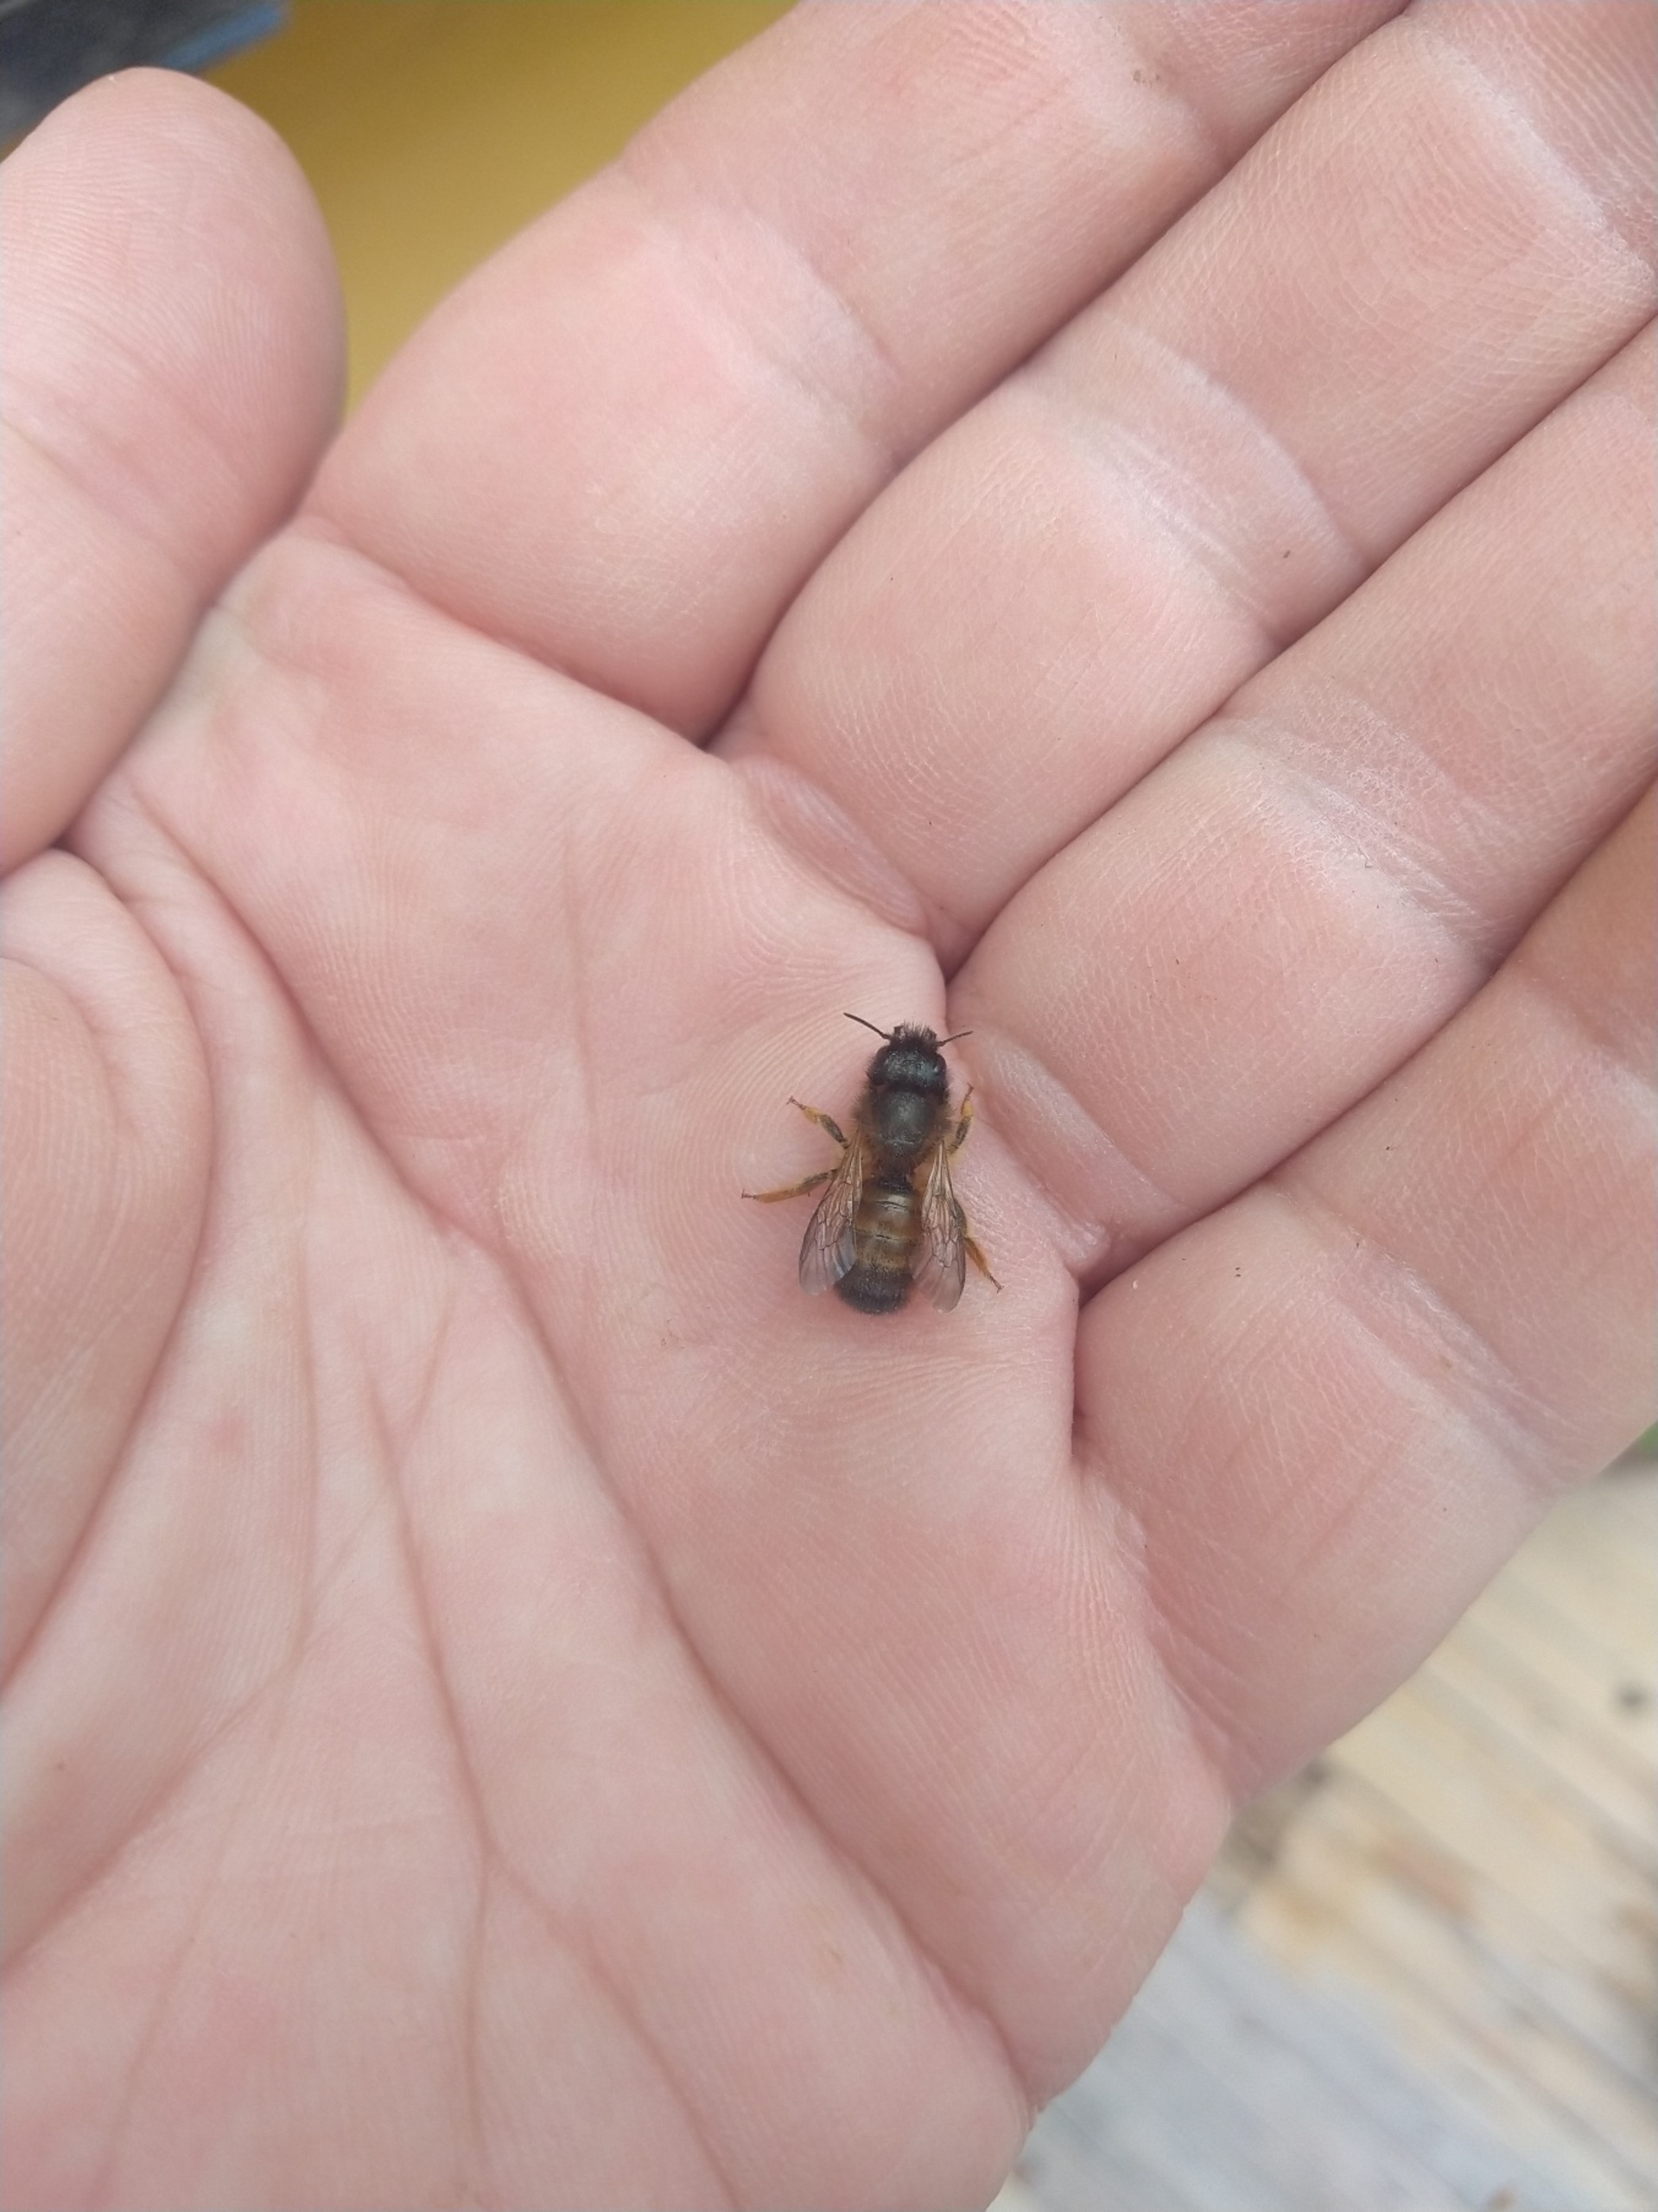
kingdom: Animalia
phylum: Arthropoda
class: Insecta
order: Hymenoptera
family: Megachilidae
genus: Osmia
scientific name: Osmia bicornis
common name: Rød murerbi
